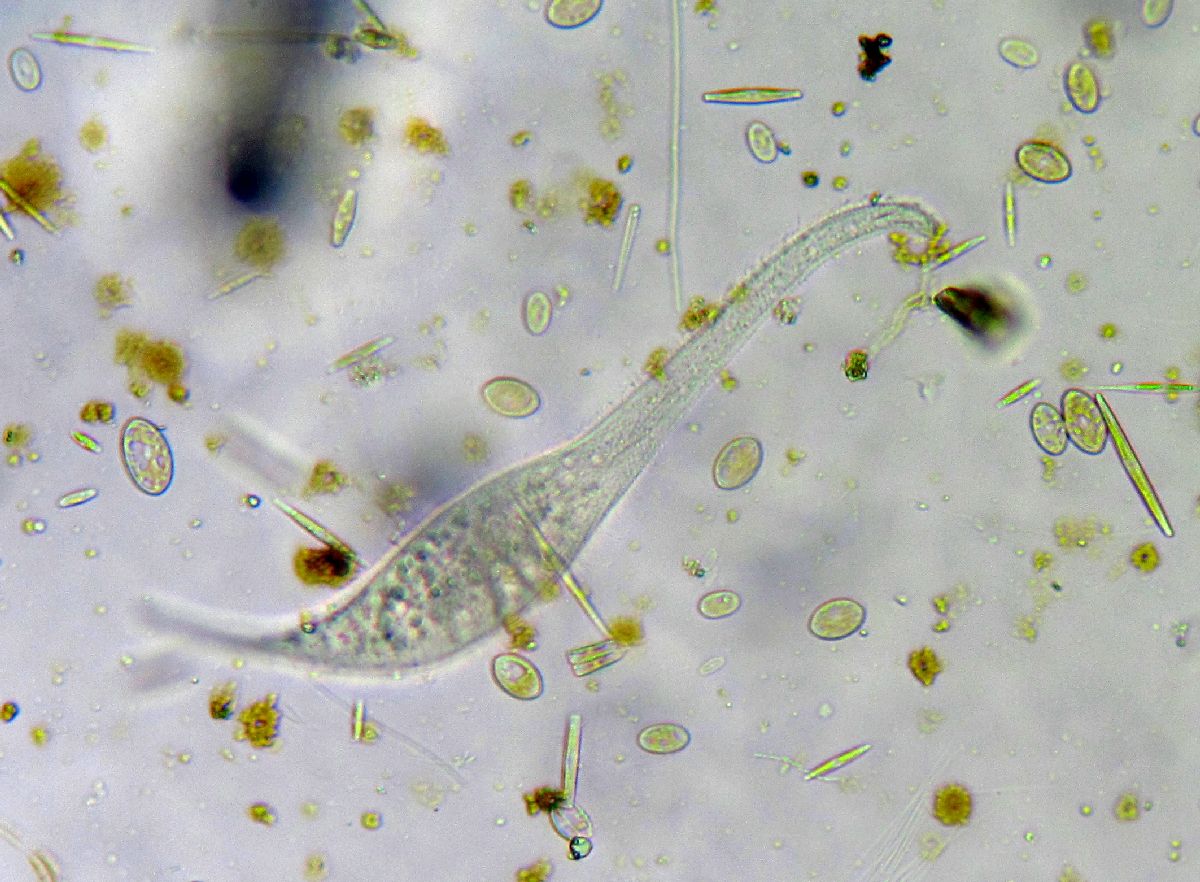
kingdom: Chromista
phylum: Ciliophora
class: Gymnostomatea
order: Pleurostomatida
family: Litonotidae
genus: Litonotus
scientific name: Litonotus cygnus
